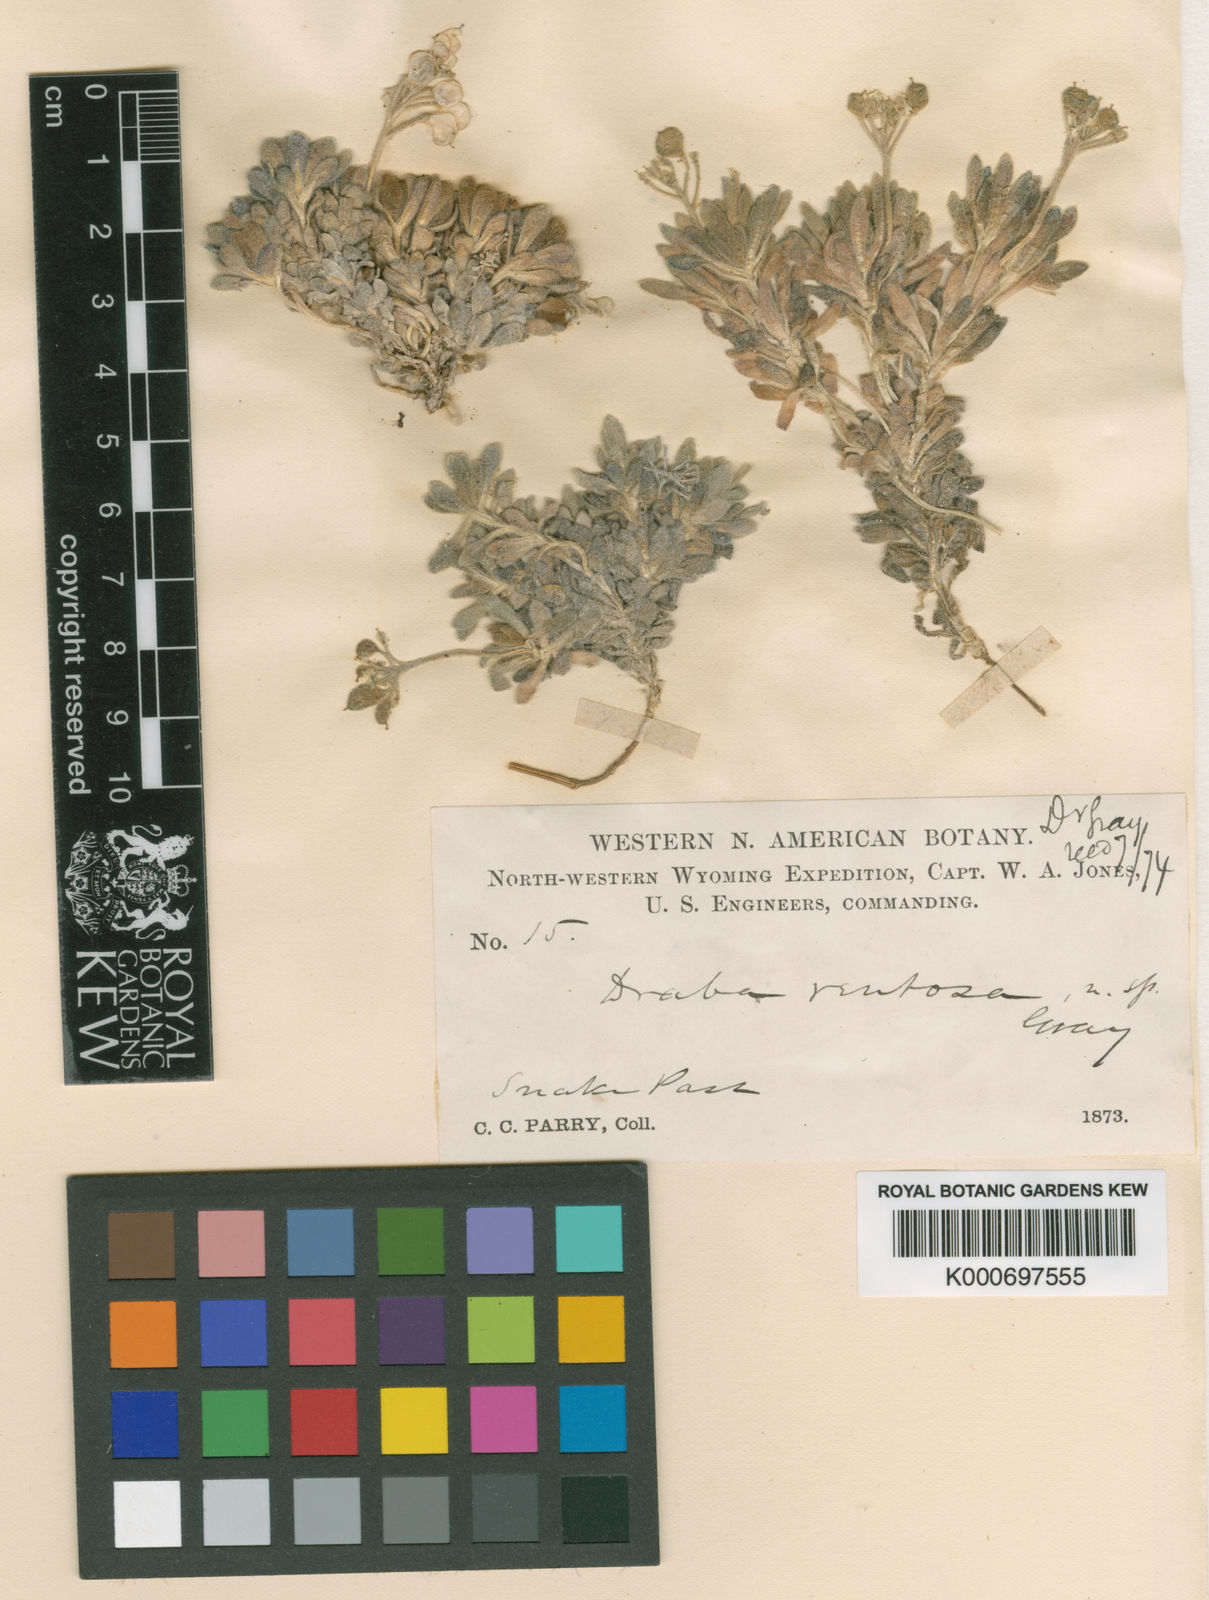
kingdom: Plantae
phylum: Tracheophyta
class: Magnoliopsida
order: Brassicales
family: Brassicaceae
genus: Draba
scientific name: Draba ventosa
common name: Wind river draba
